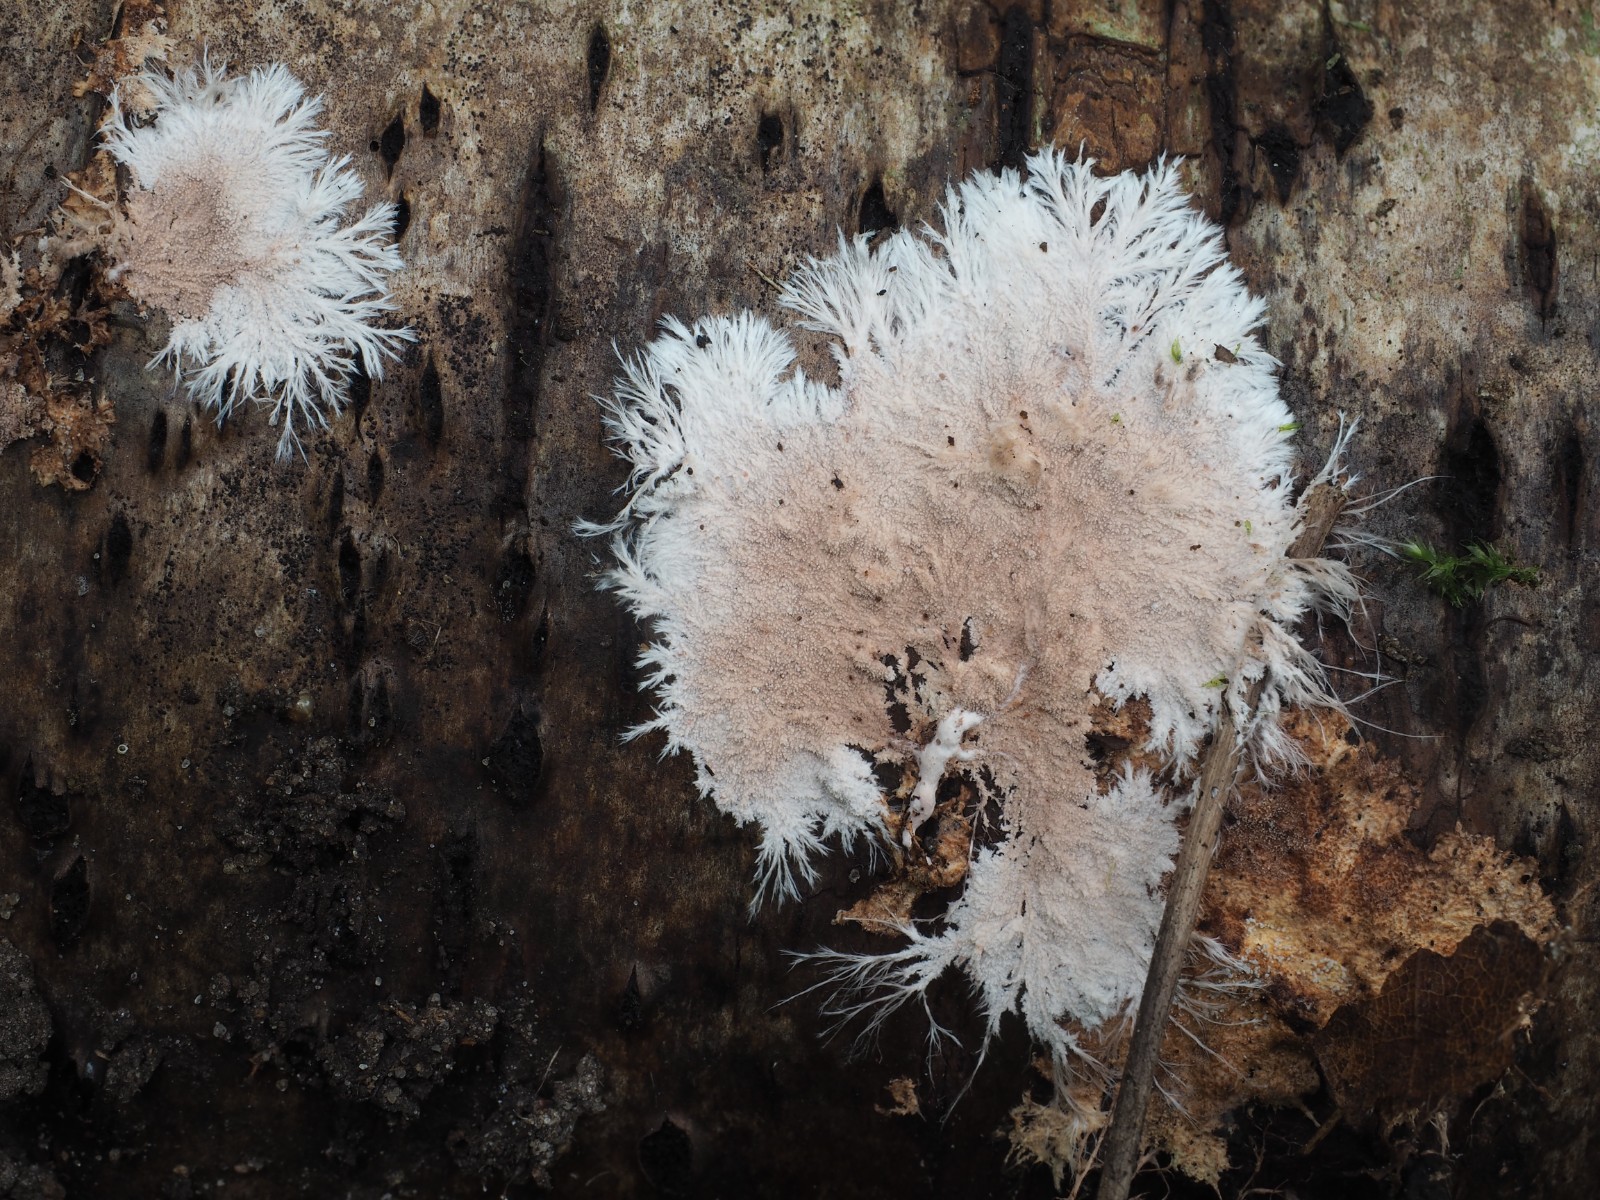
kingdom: Fungi
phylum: Basidiomycota
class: Agaricomycetes
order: Polyporales
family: Steccherinaceae
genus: Steccherinum
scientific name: Steccherinum fimbriatum
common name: trådet skønpig
